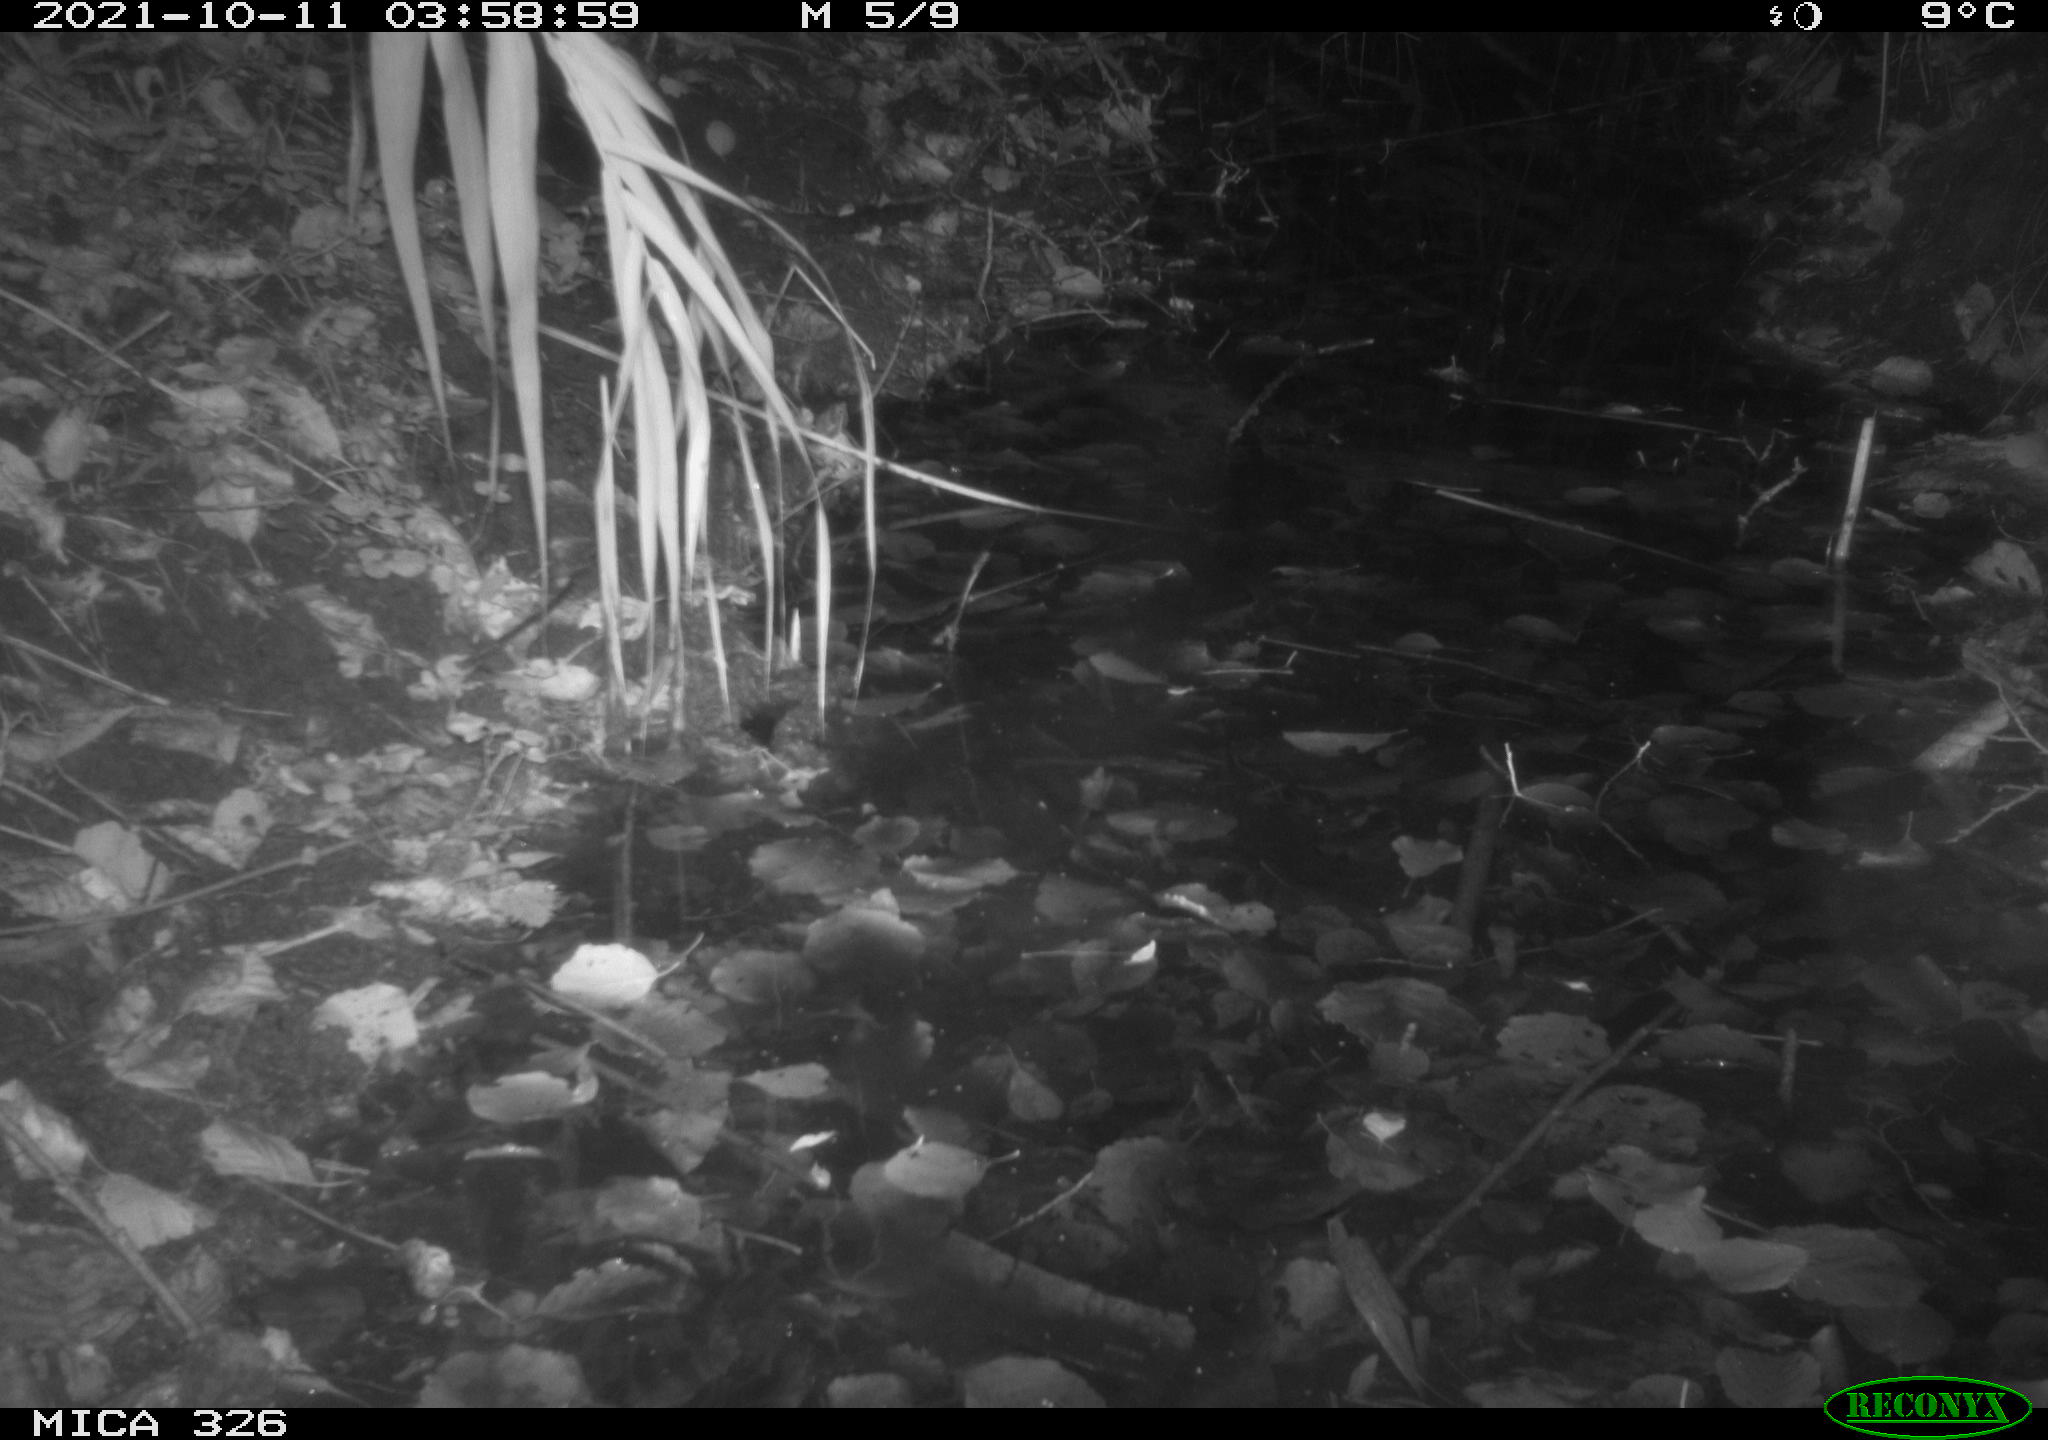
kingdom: Animalia
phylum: Chordata
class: Mammalia
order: Rodentia
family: Myocastoridae
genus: Myocastor
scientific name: Myocastor coypus
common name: Coypu
